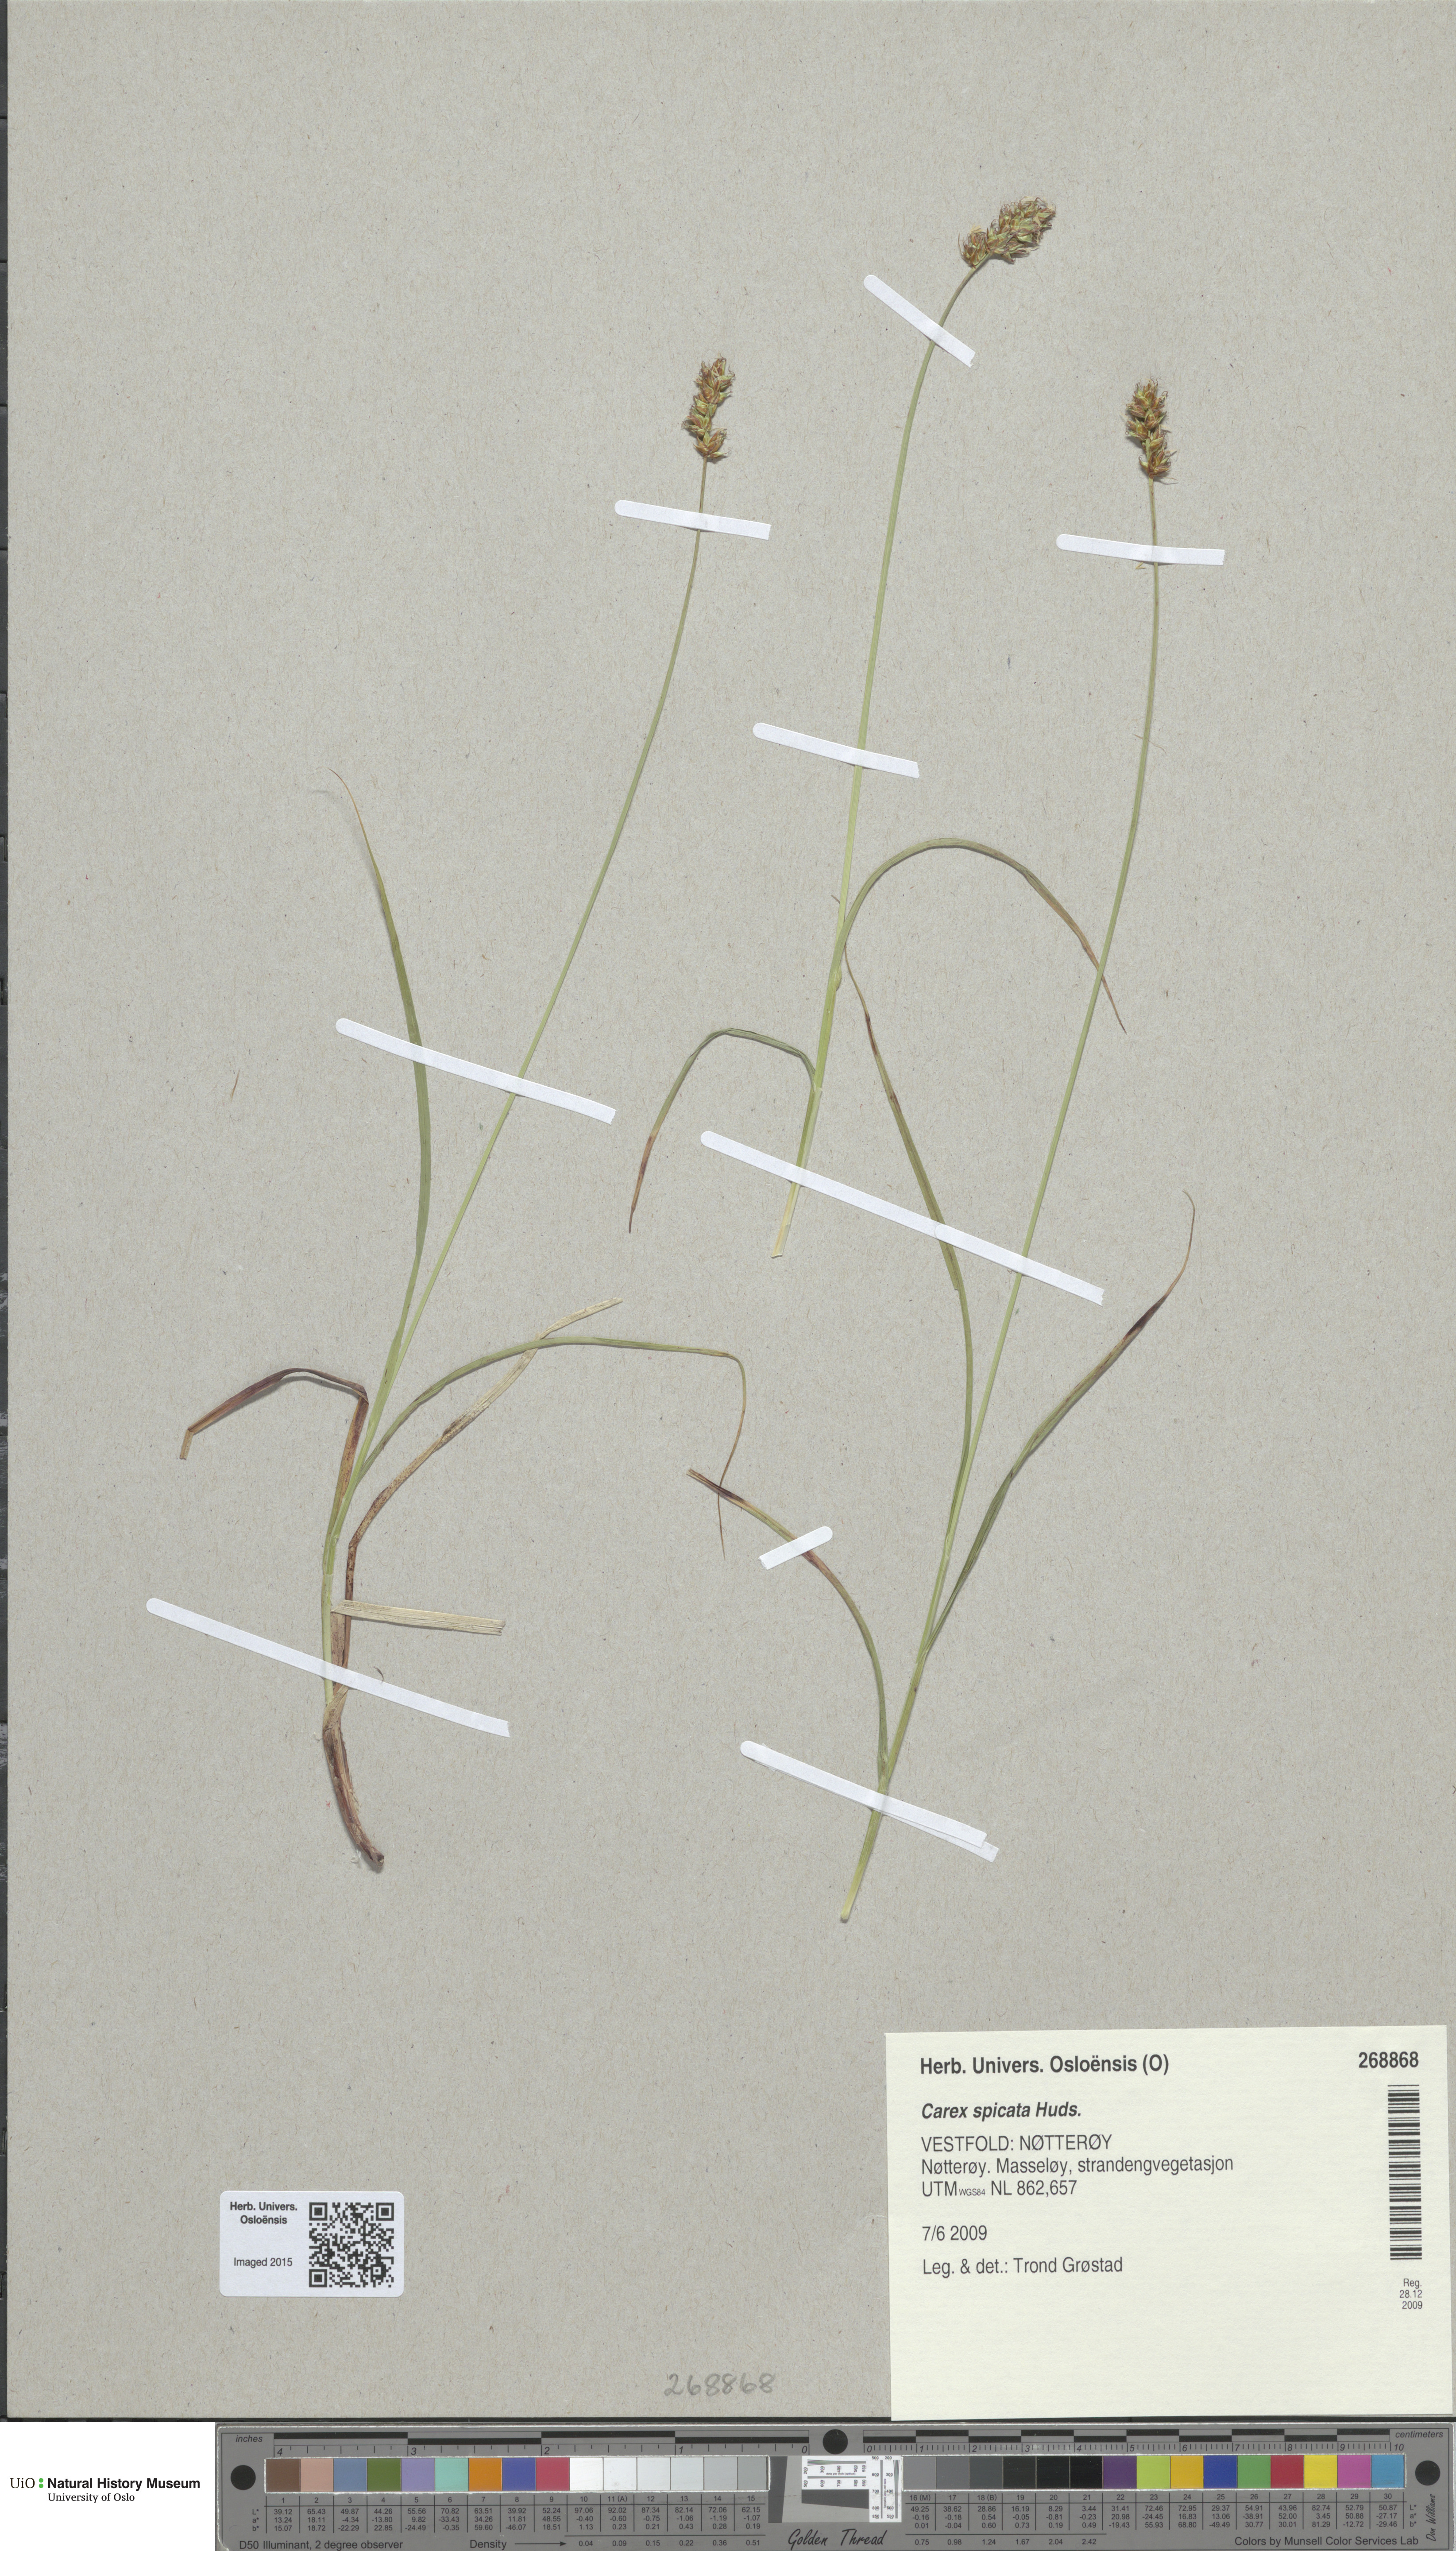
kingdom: Plantae
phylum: Tracheophyta
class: Liliopsida
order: Poales
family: Cyperaceae
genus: Carex
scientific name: Carex spicata
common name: Spiked sedge
